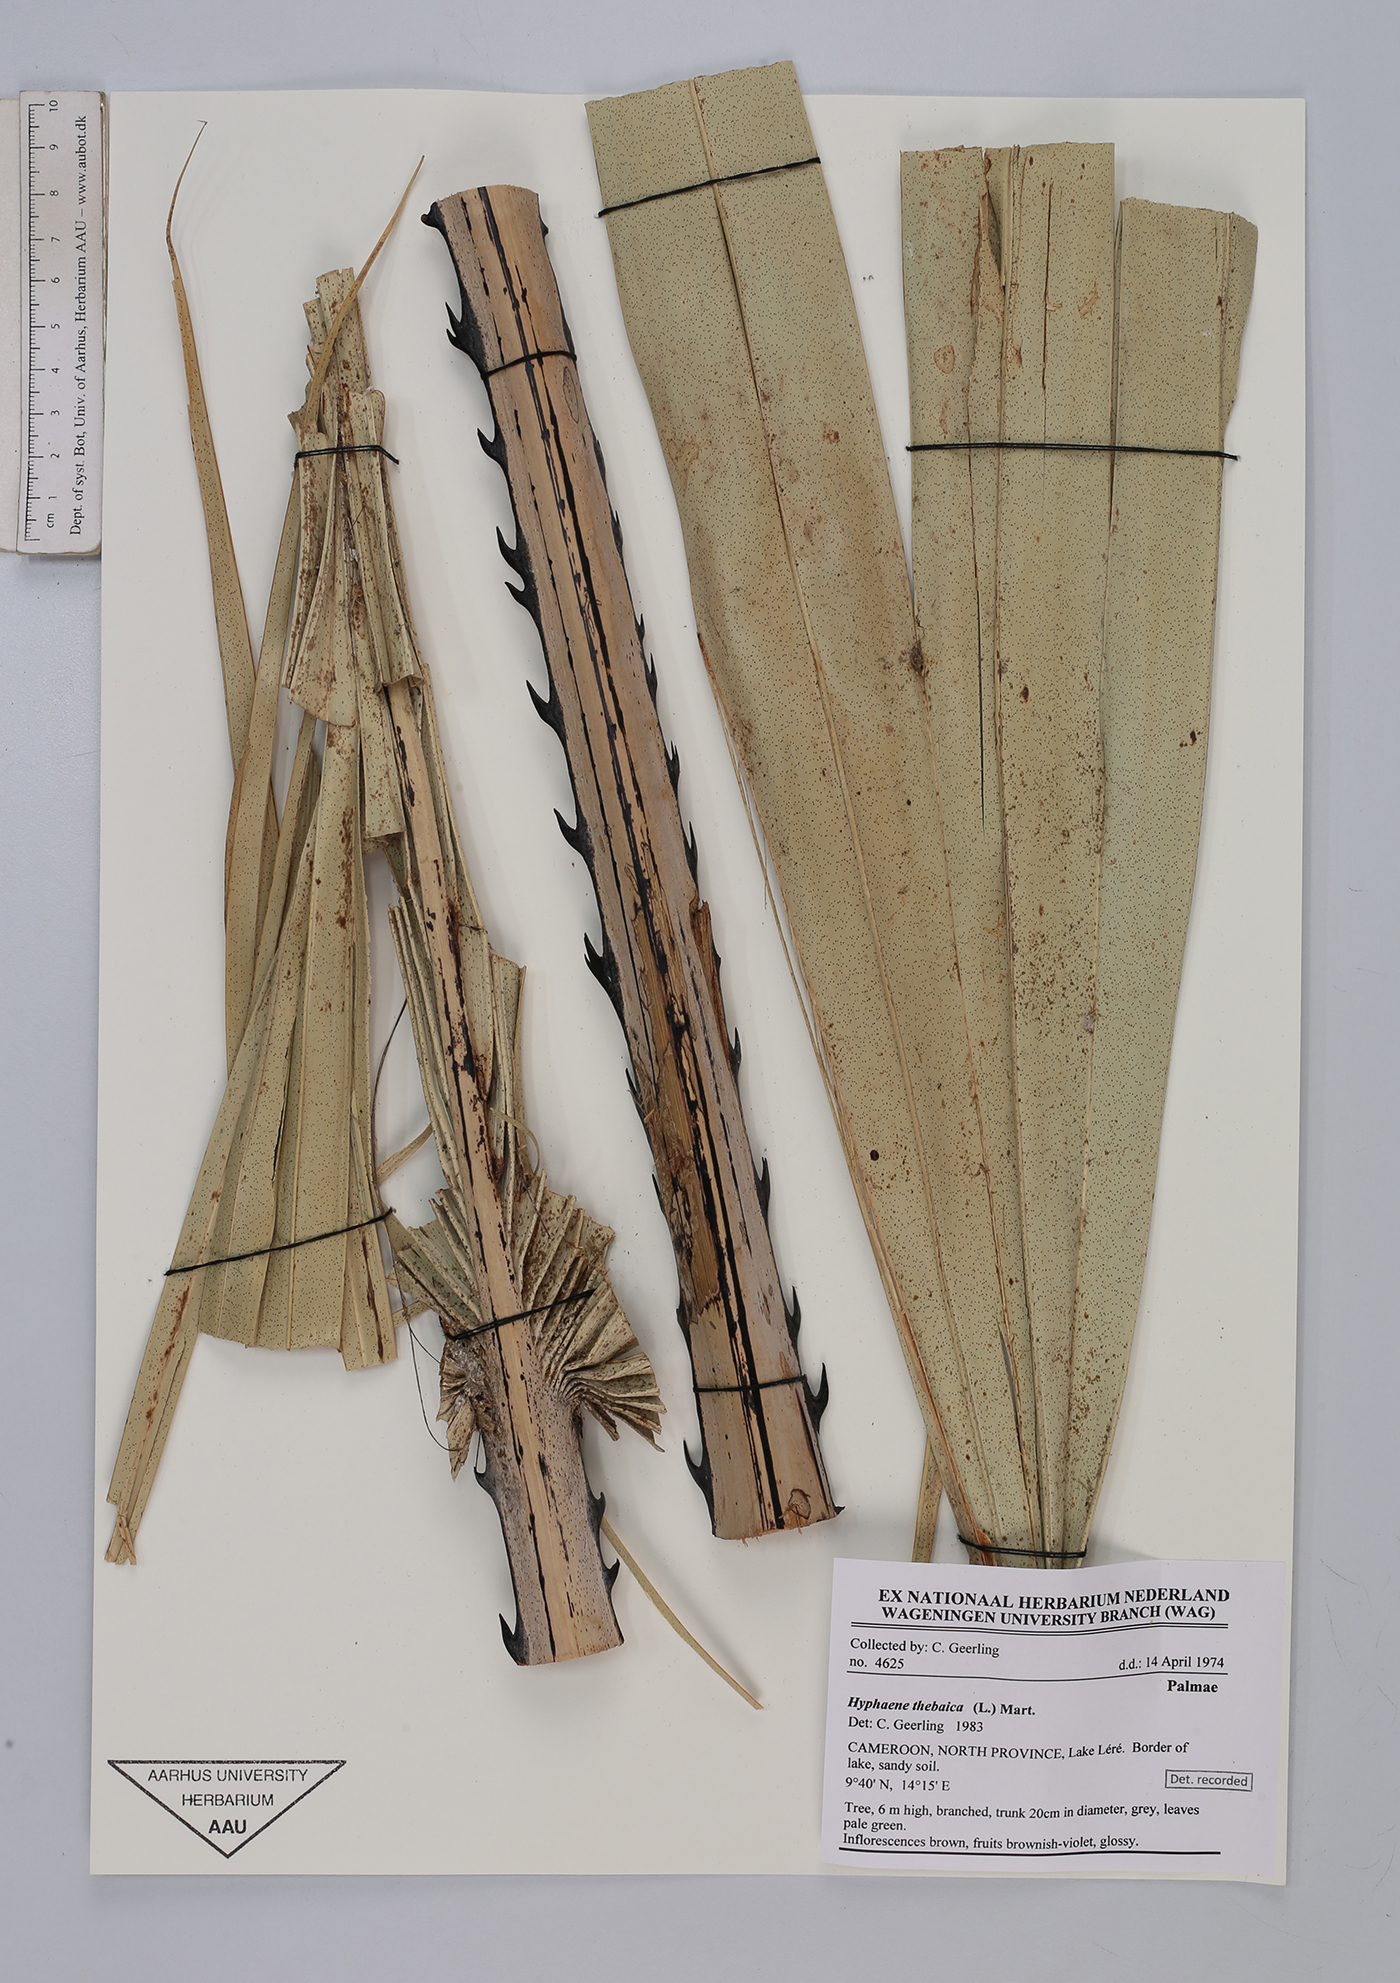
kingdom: Plantae
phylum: Tracheophyta
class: Liliopsida
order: Arecales
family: Arecaceae
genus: Hyphaene
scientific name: Hyphaene thebaica
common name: Doum palm
